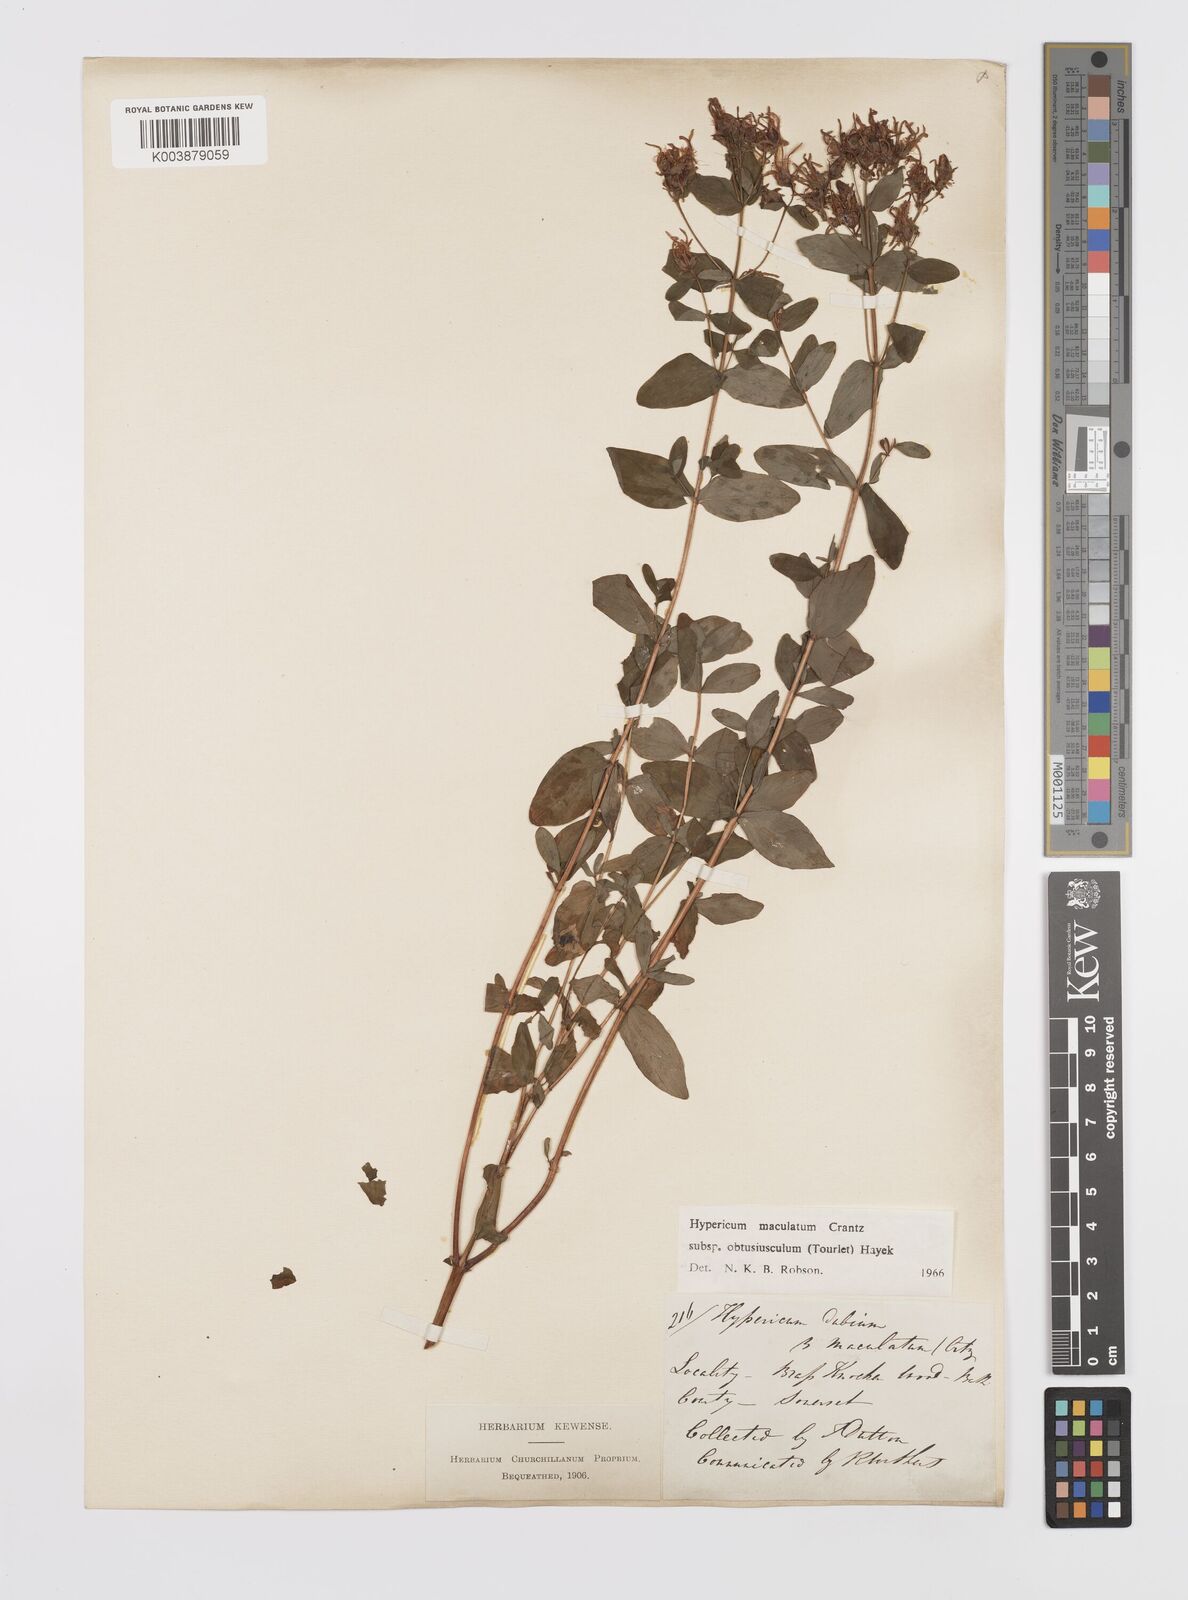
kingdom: Plantae
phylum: Tracheophyta
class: Magnoliopsida
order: Malpighiales
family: Hypericaceae
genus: Hypericum
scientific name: Hypericum dubium
